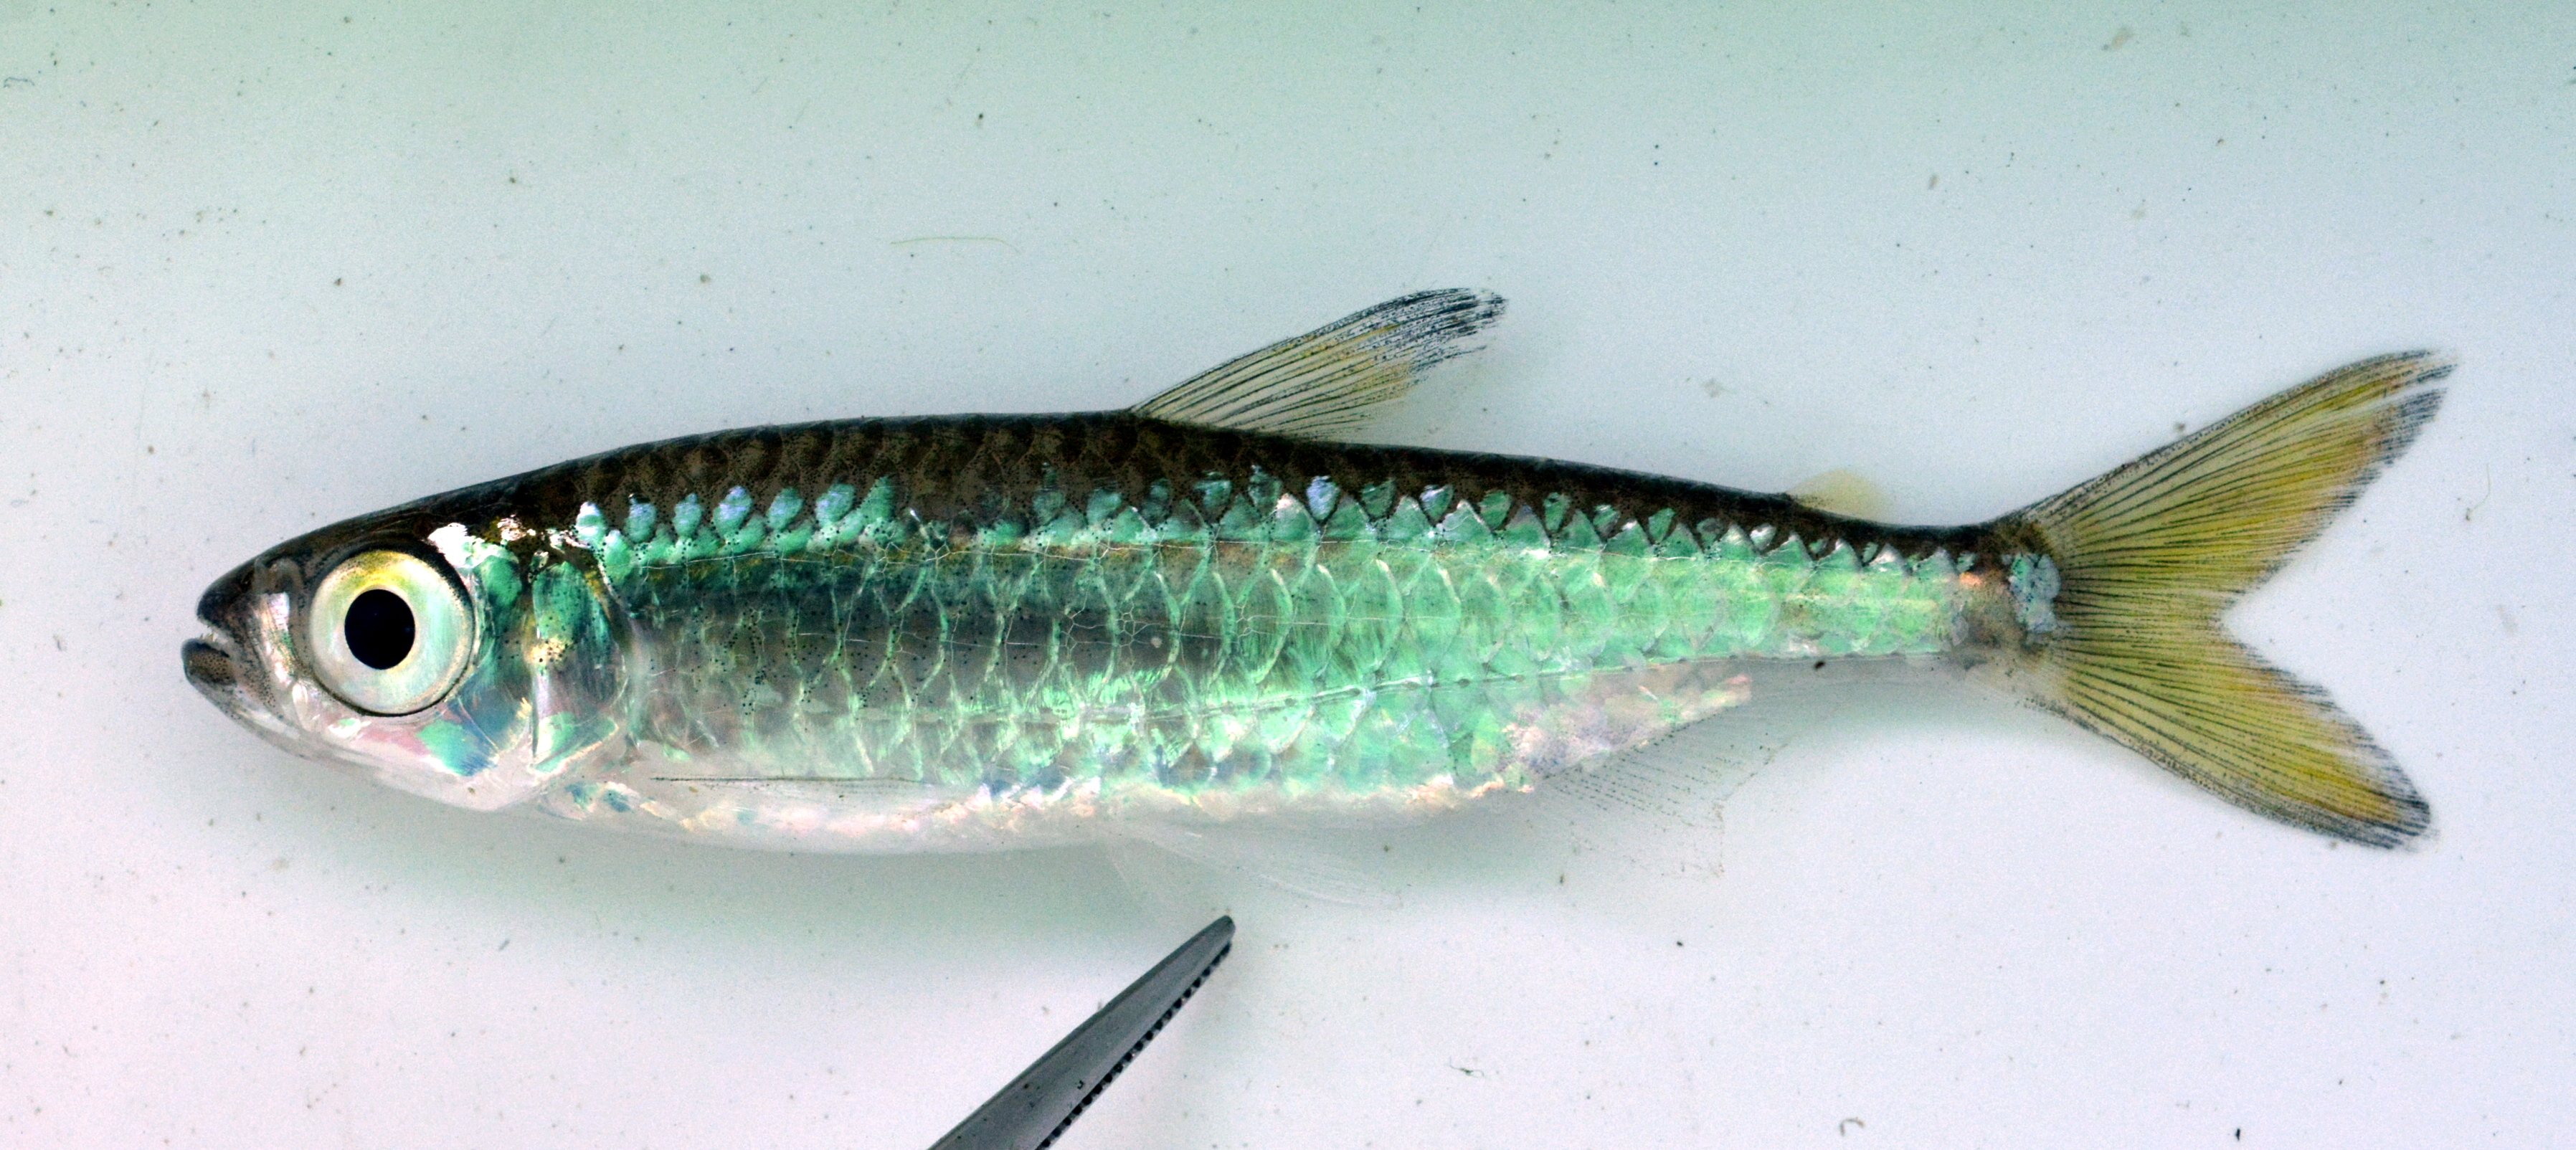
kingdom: Animalia
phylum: Chordata
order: Characiformes
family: Alestidae
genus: Micralestes
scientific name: Micralestes acutidens
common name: Silver robber
